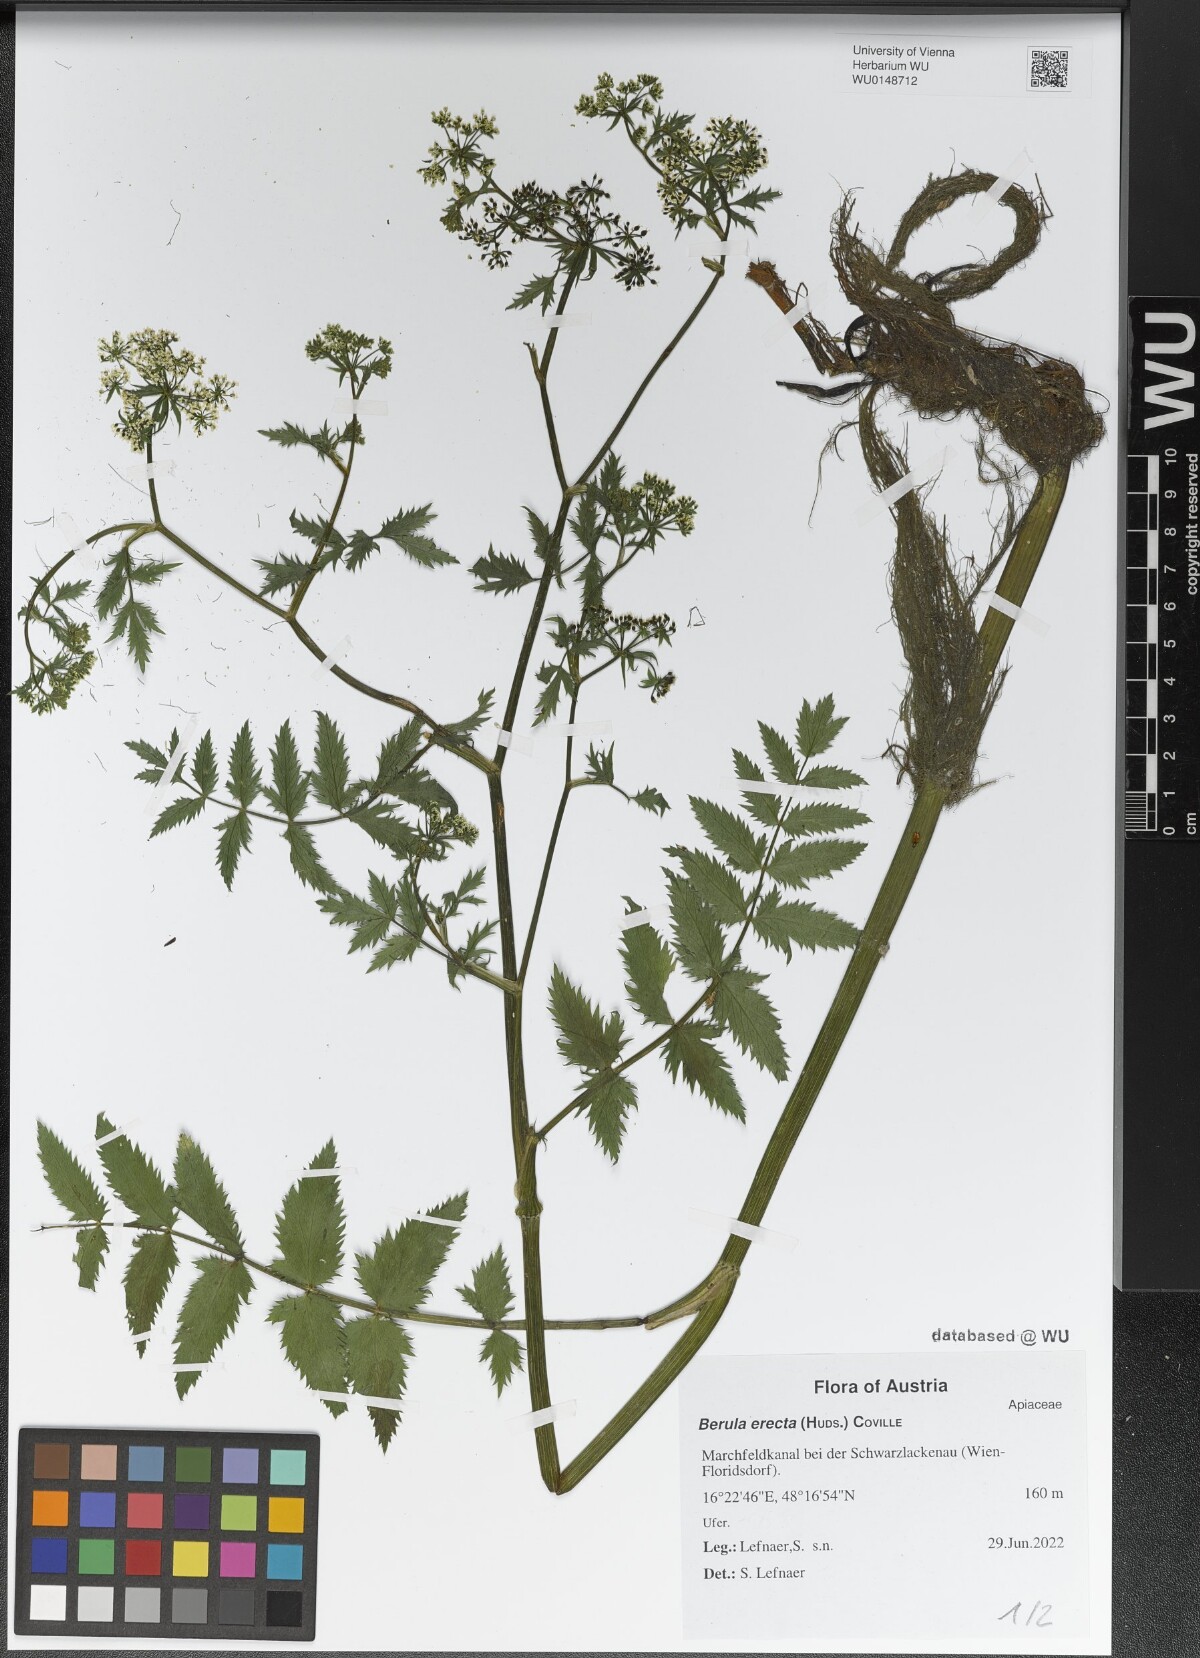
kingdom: Plantae
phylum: Tracheophyta
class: Magnoliopsida
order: Apiales
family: Apiaceae
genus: Berula
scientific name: Berula erecta
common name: Lesser water-parsnip
